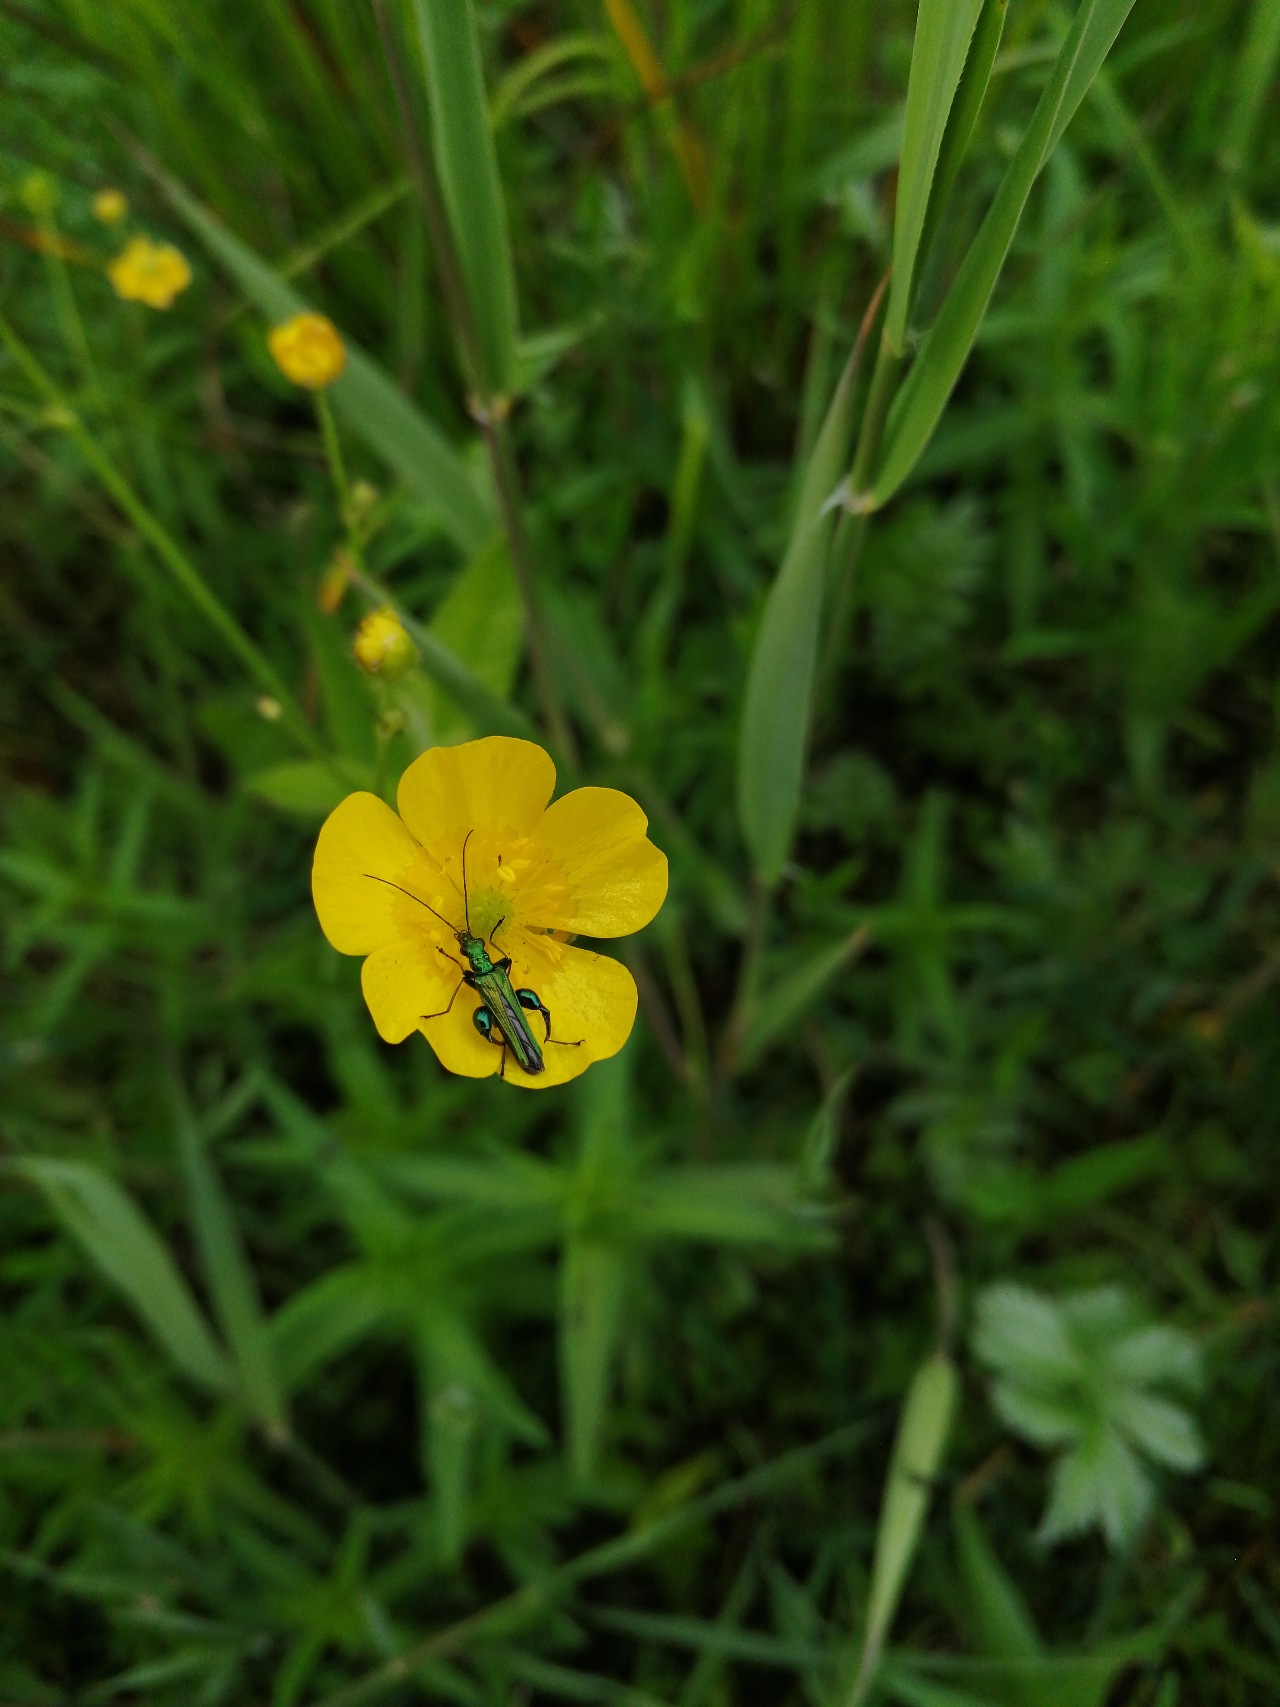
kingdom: Animalia
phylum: Arthropoda
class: Insecta
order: Coleoptera
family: Oedemeridae
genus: Oedemera
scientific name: Oedemera nobilis
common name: Tyklårssolbille
